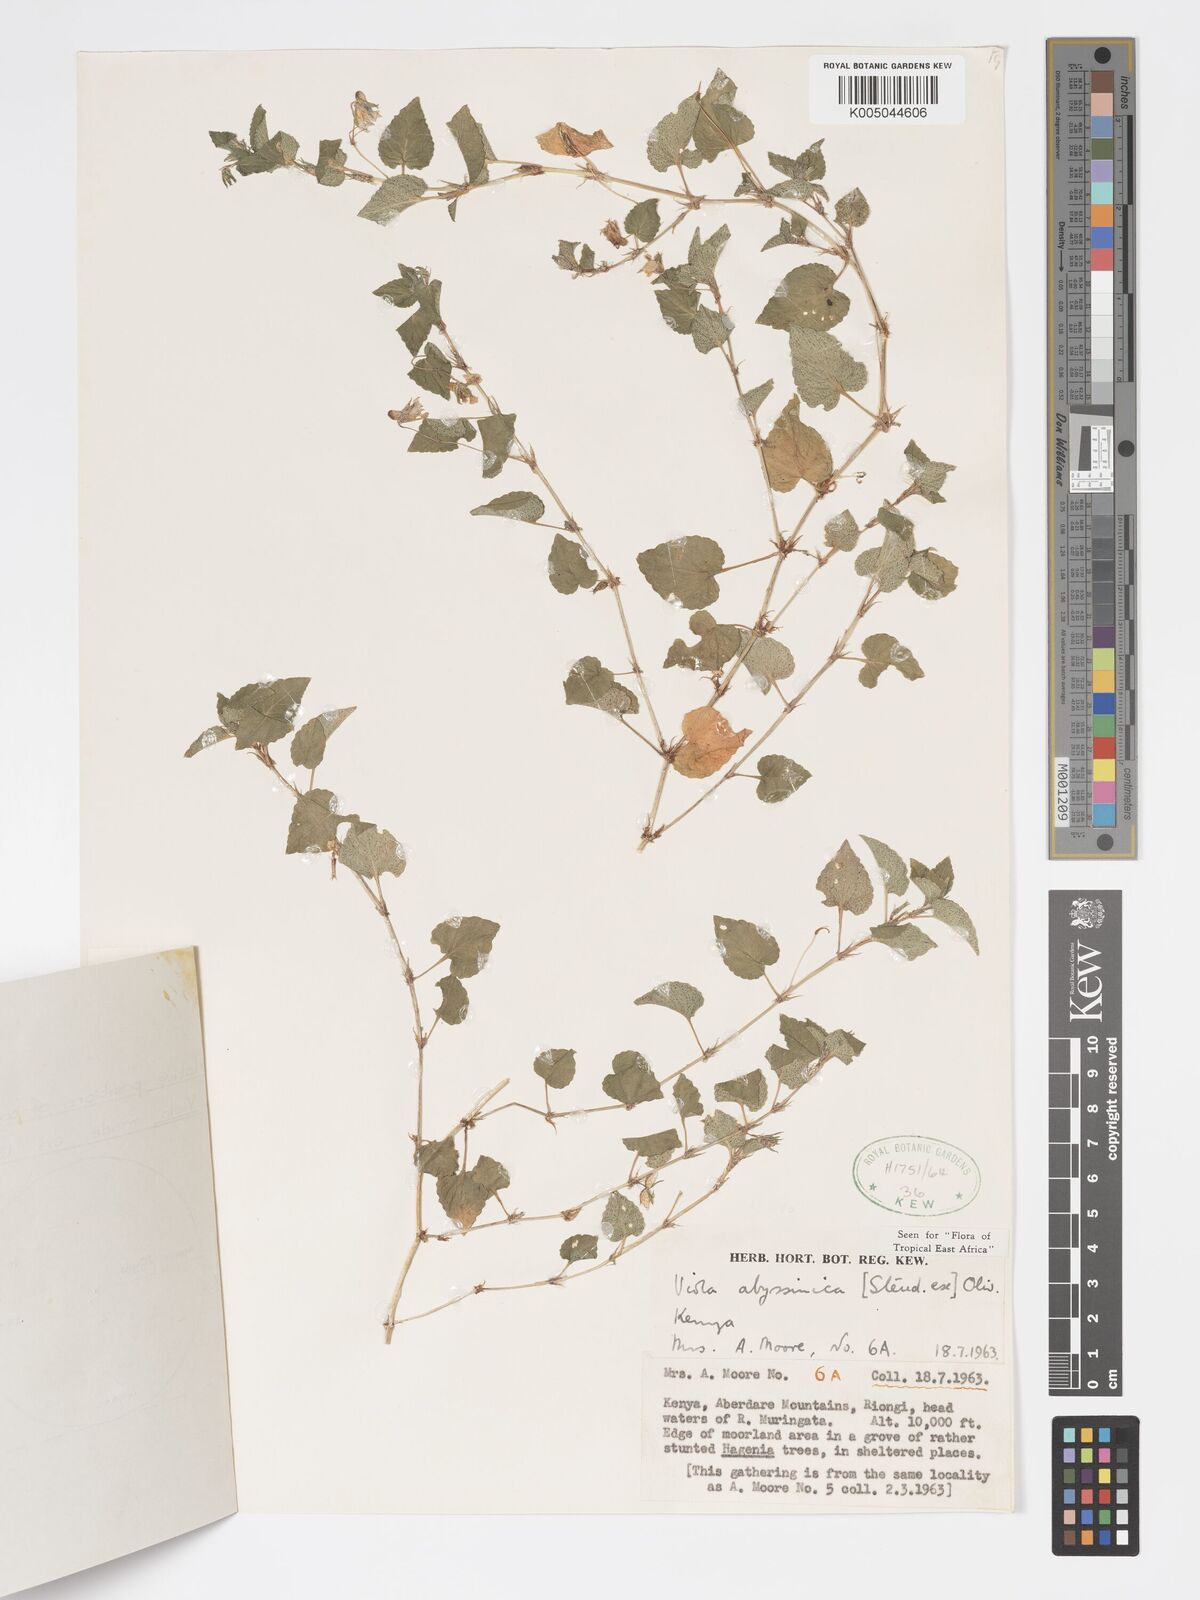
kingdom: Plantae
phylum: Tracheophyta
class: Magnoliopsida
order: Malpighiales
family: Violaceae
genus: Viola
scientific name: Viola abyssinica
